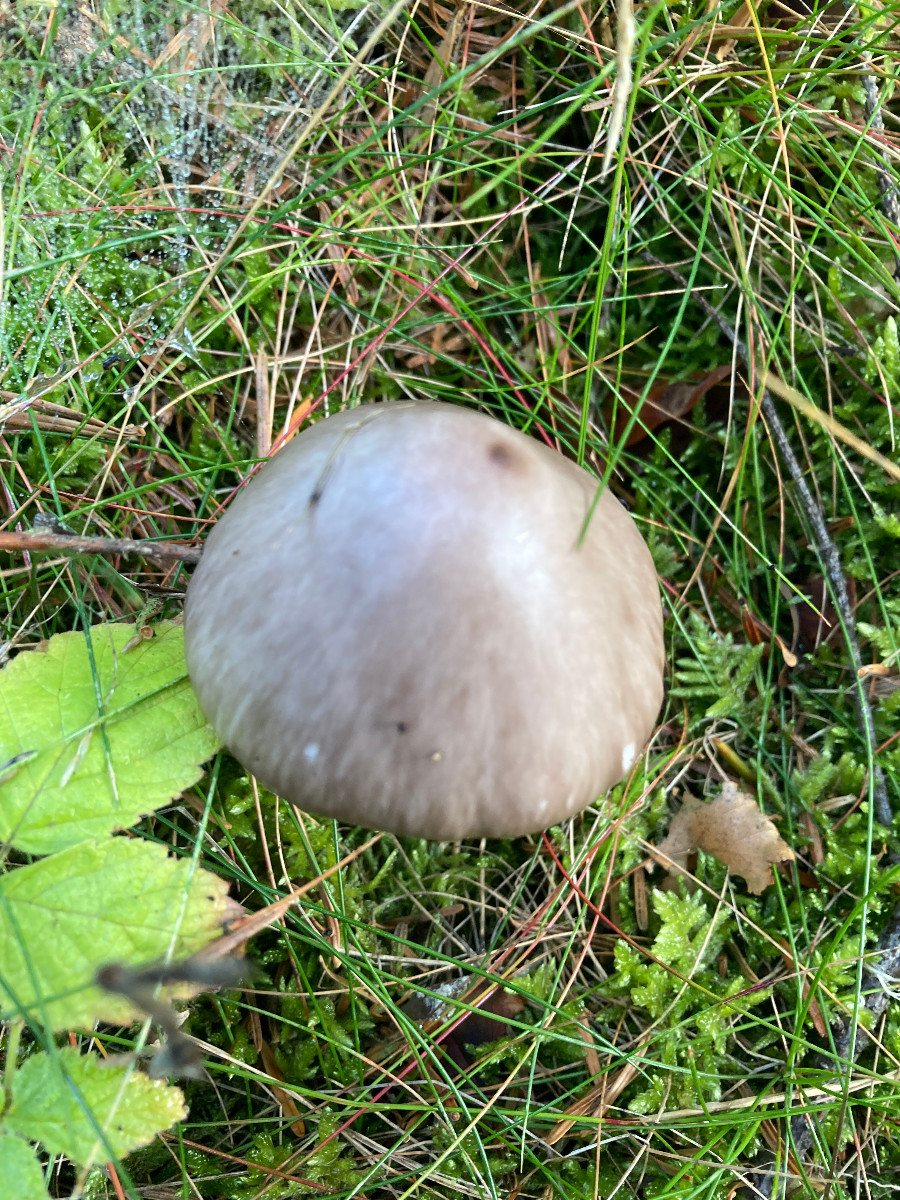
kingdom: Fungi
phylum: Basidiomycota
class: Agaricomycetes
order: Agaricales
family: Amanitaceae
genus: Amanita
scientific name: Amanita porphyria
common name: porfyr-fluesvamp
